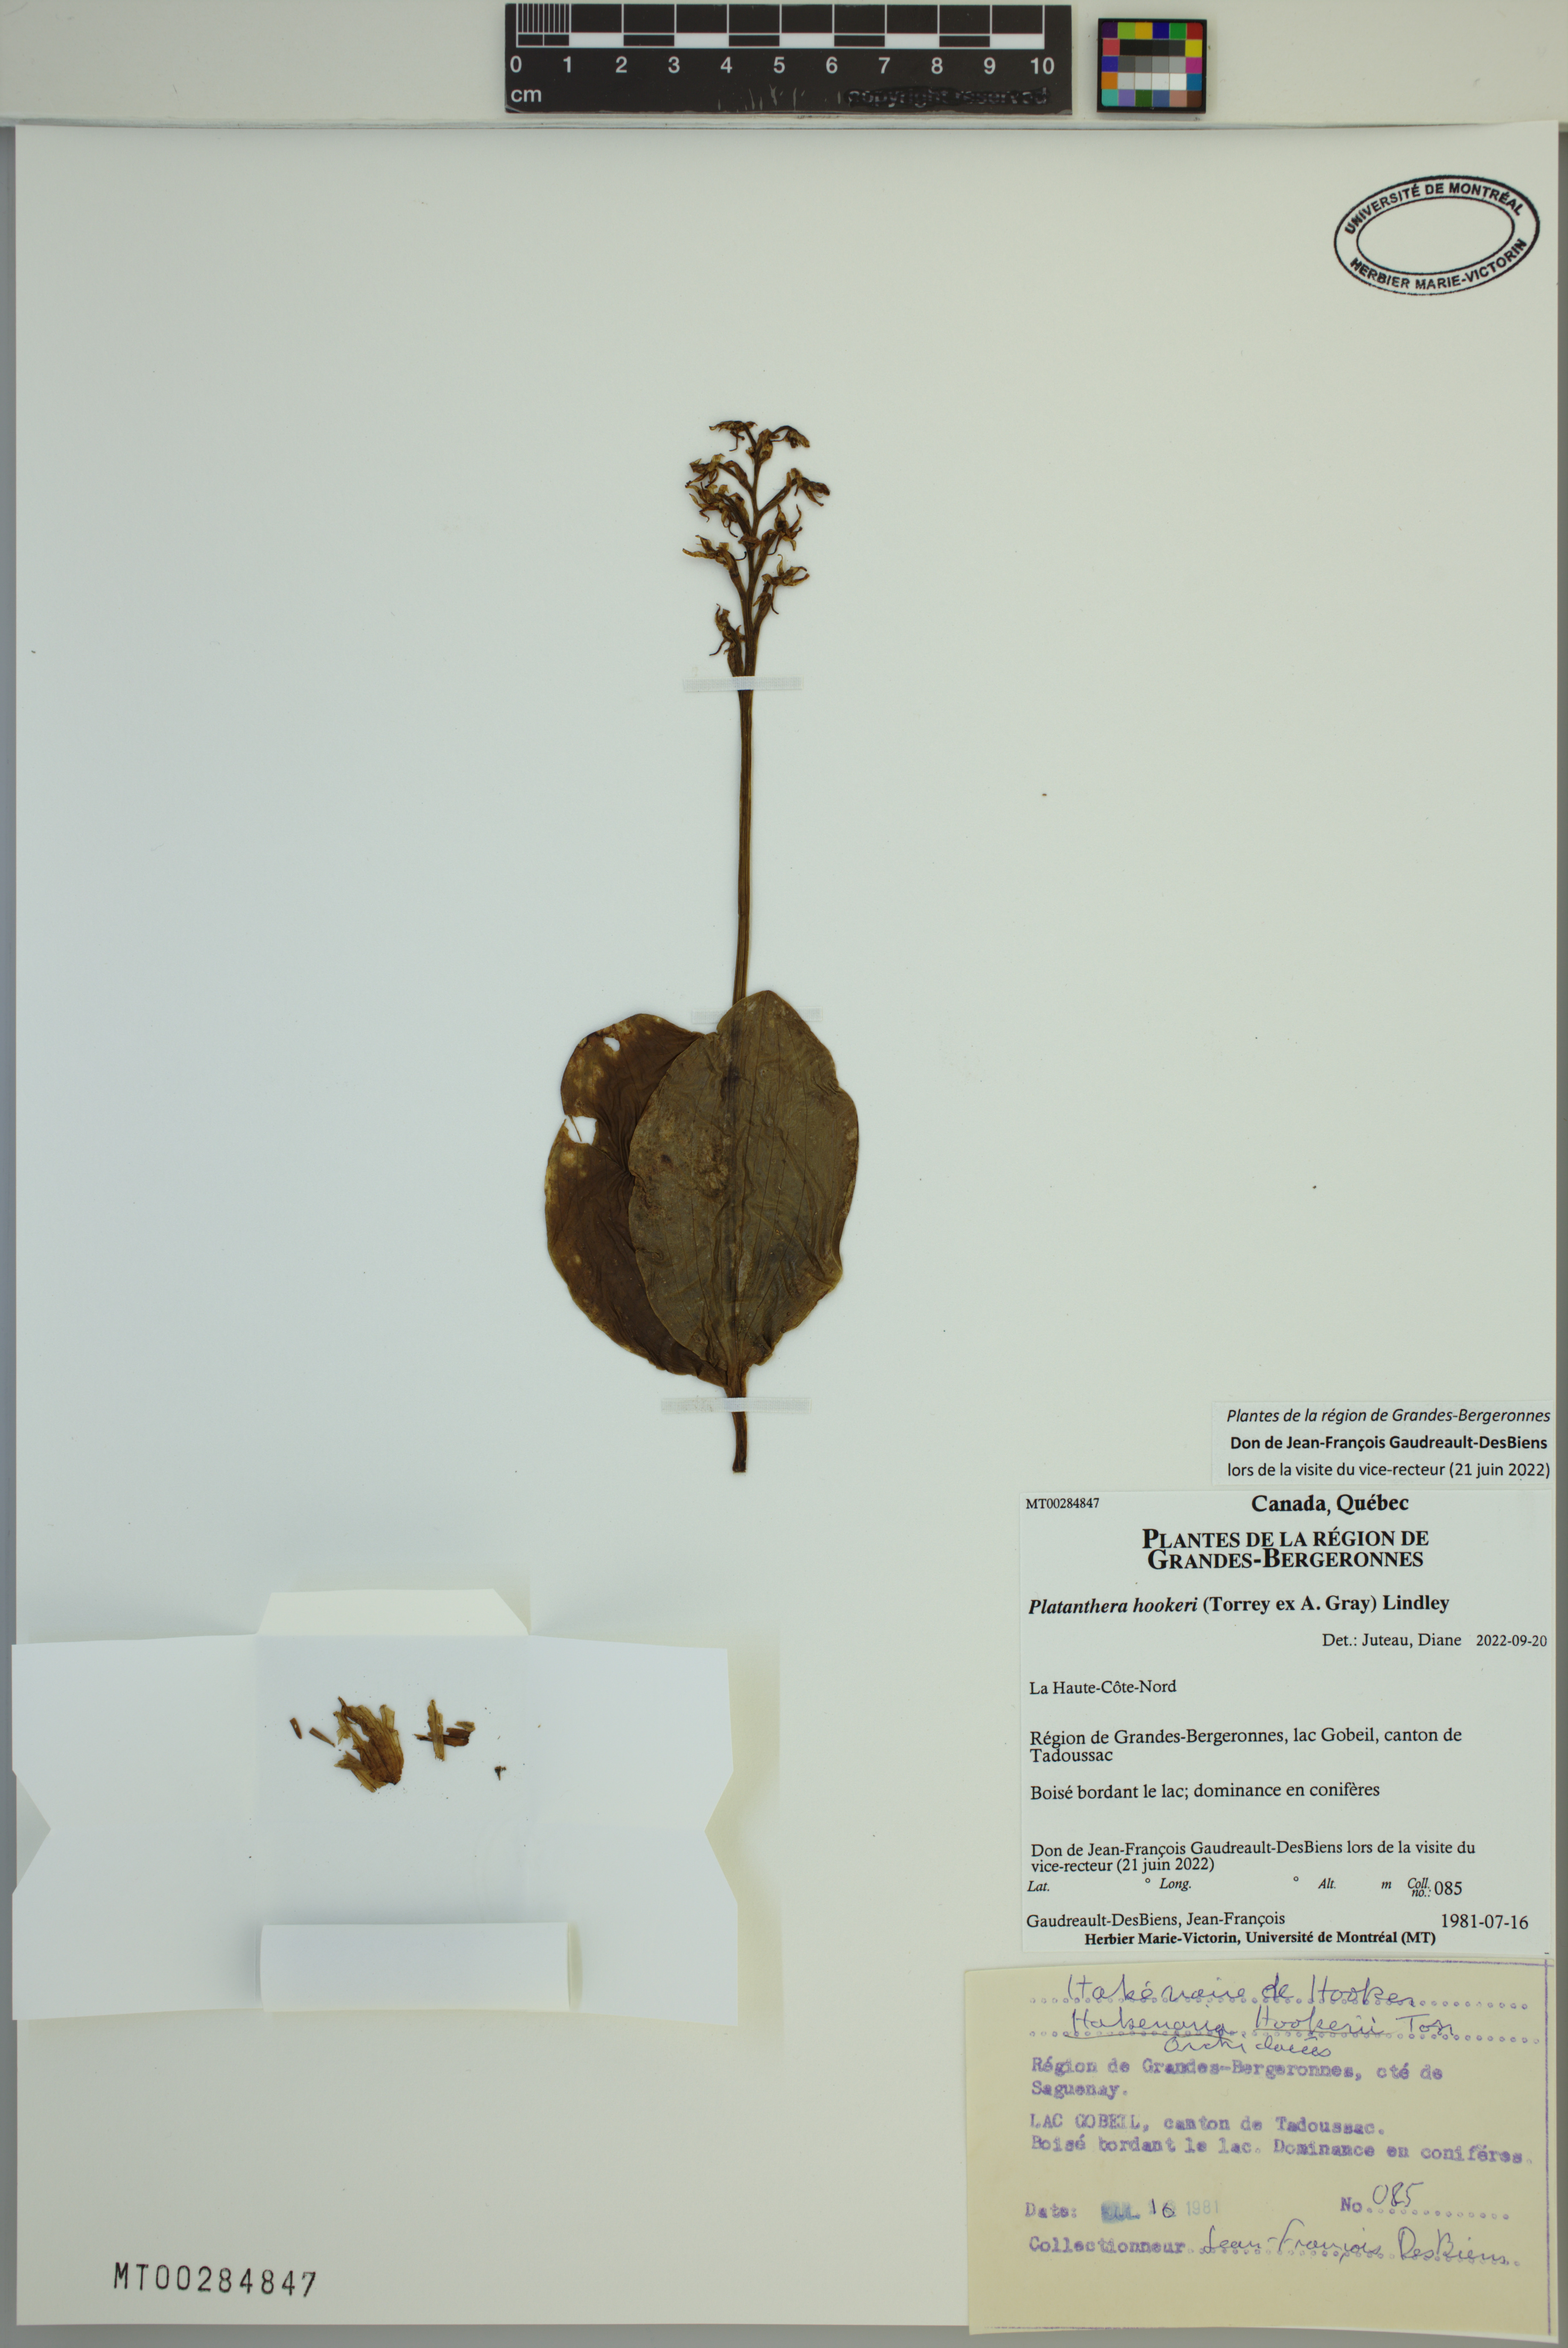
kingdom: Plantae
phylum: Tracheophyta
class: Liliopsida
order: Asparagales
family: Orchidaceae
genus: Platanthera
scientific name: Platanthera hookeri
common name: Hooker's orchid
